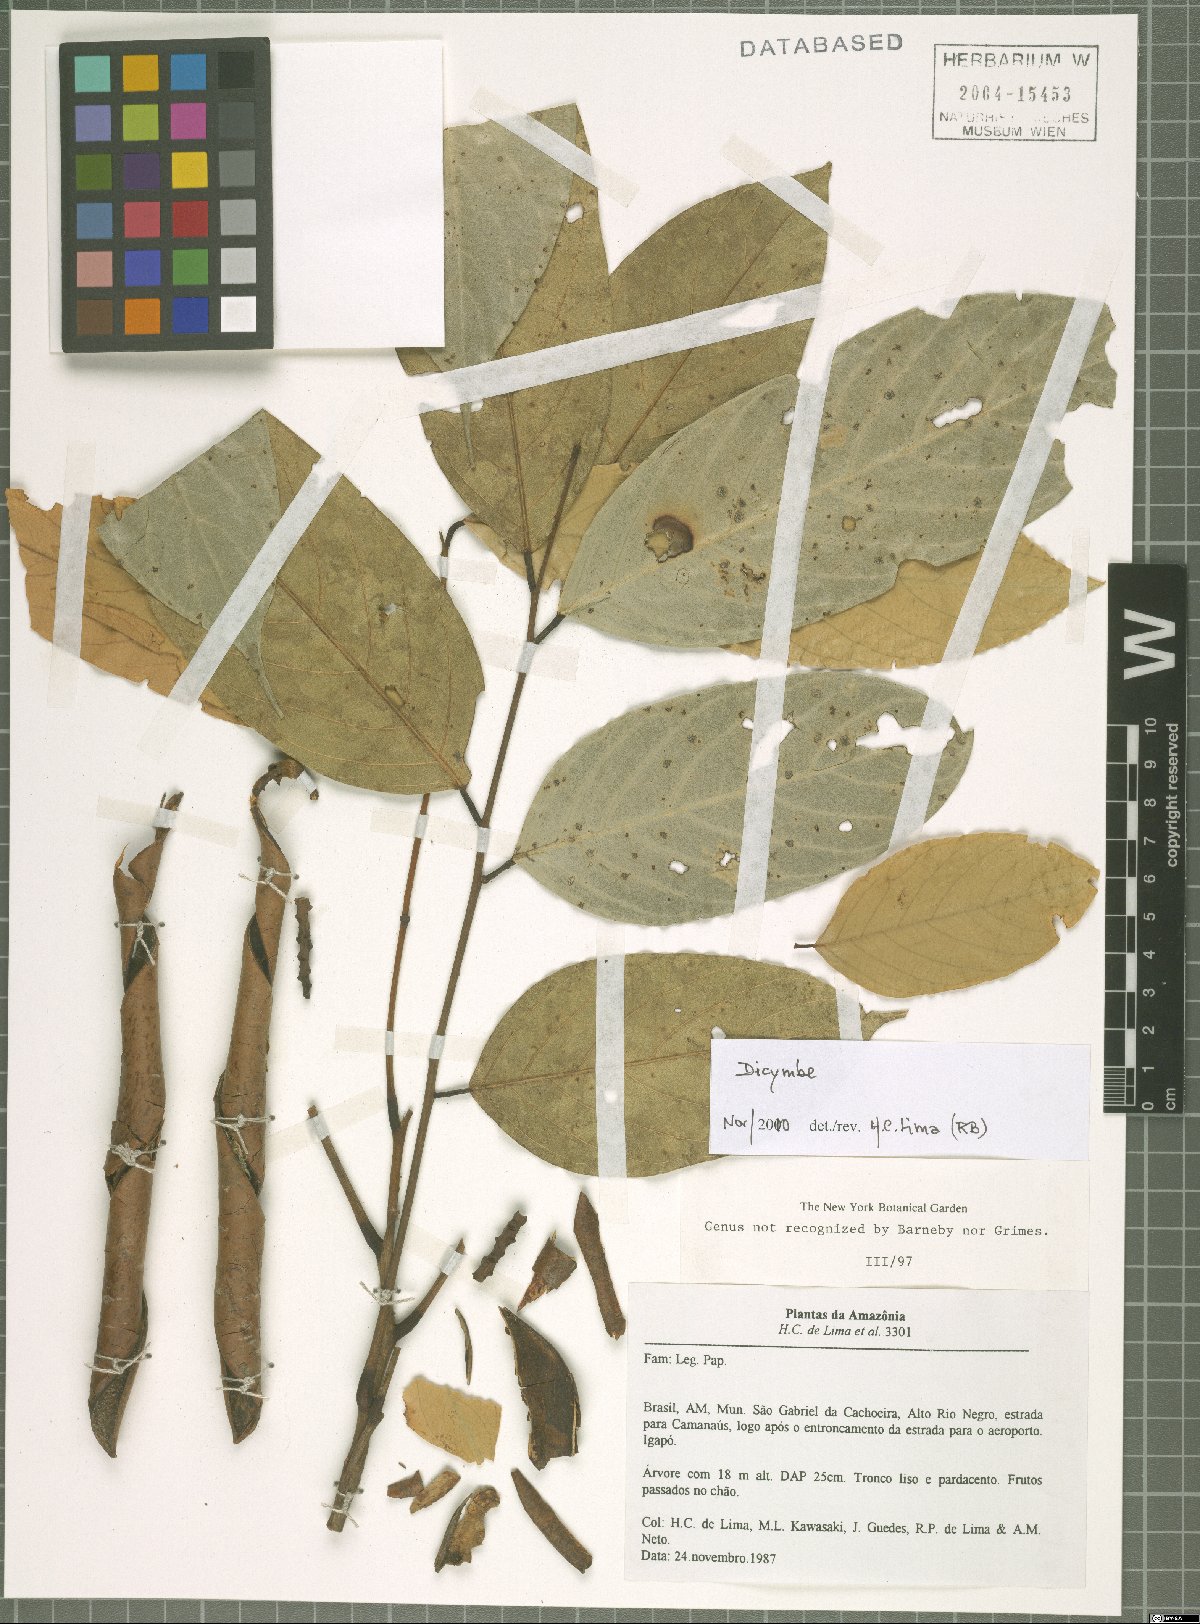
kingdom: Plantae
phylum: Tracheophyta
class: Magnoliopsida
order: Fabales
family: Fabaceae
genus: Dicymbe
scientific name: Dicymbe
